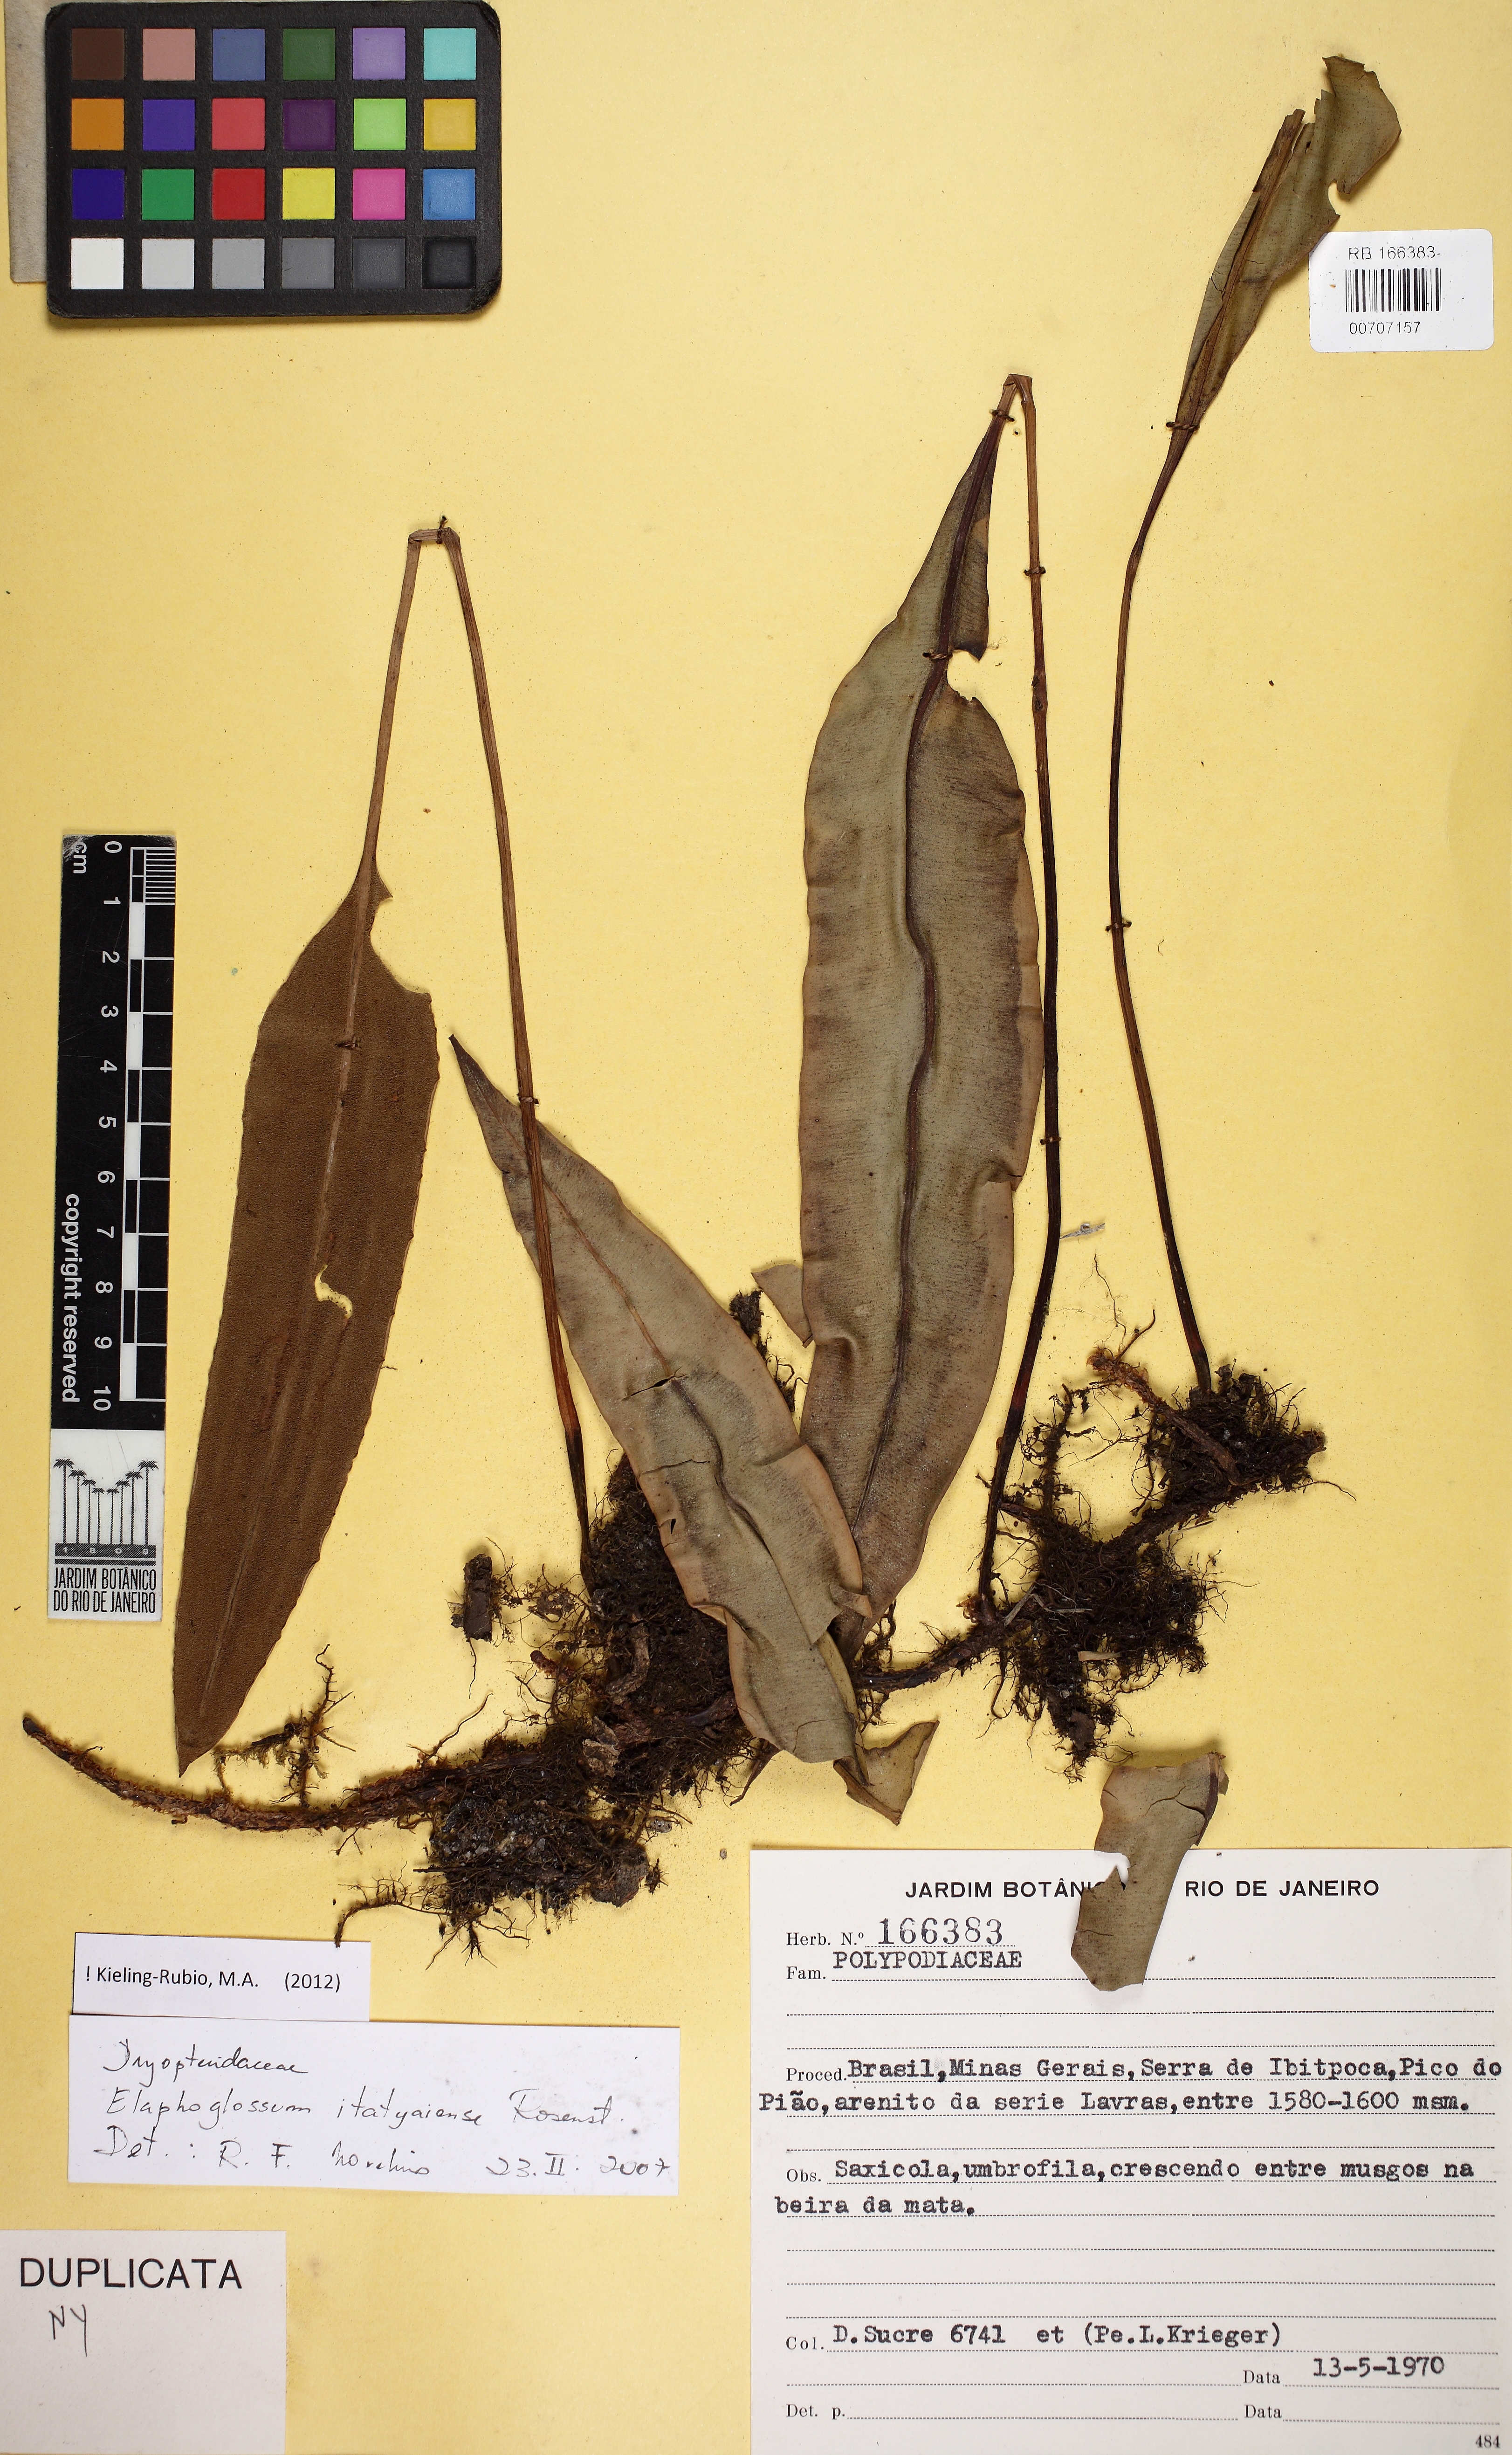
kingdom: Plantae
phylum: Tracheophyta
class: Polypodiopsida
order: Polypodiales
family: Dryopteridaceae
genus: Elaphoglossum
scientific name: Elaphoglossum itatiayense
